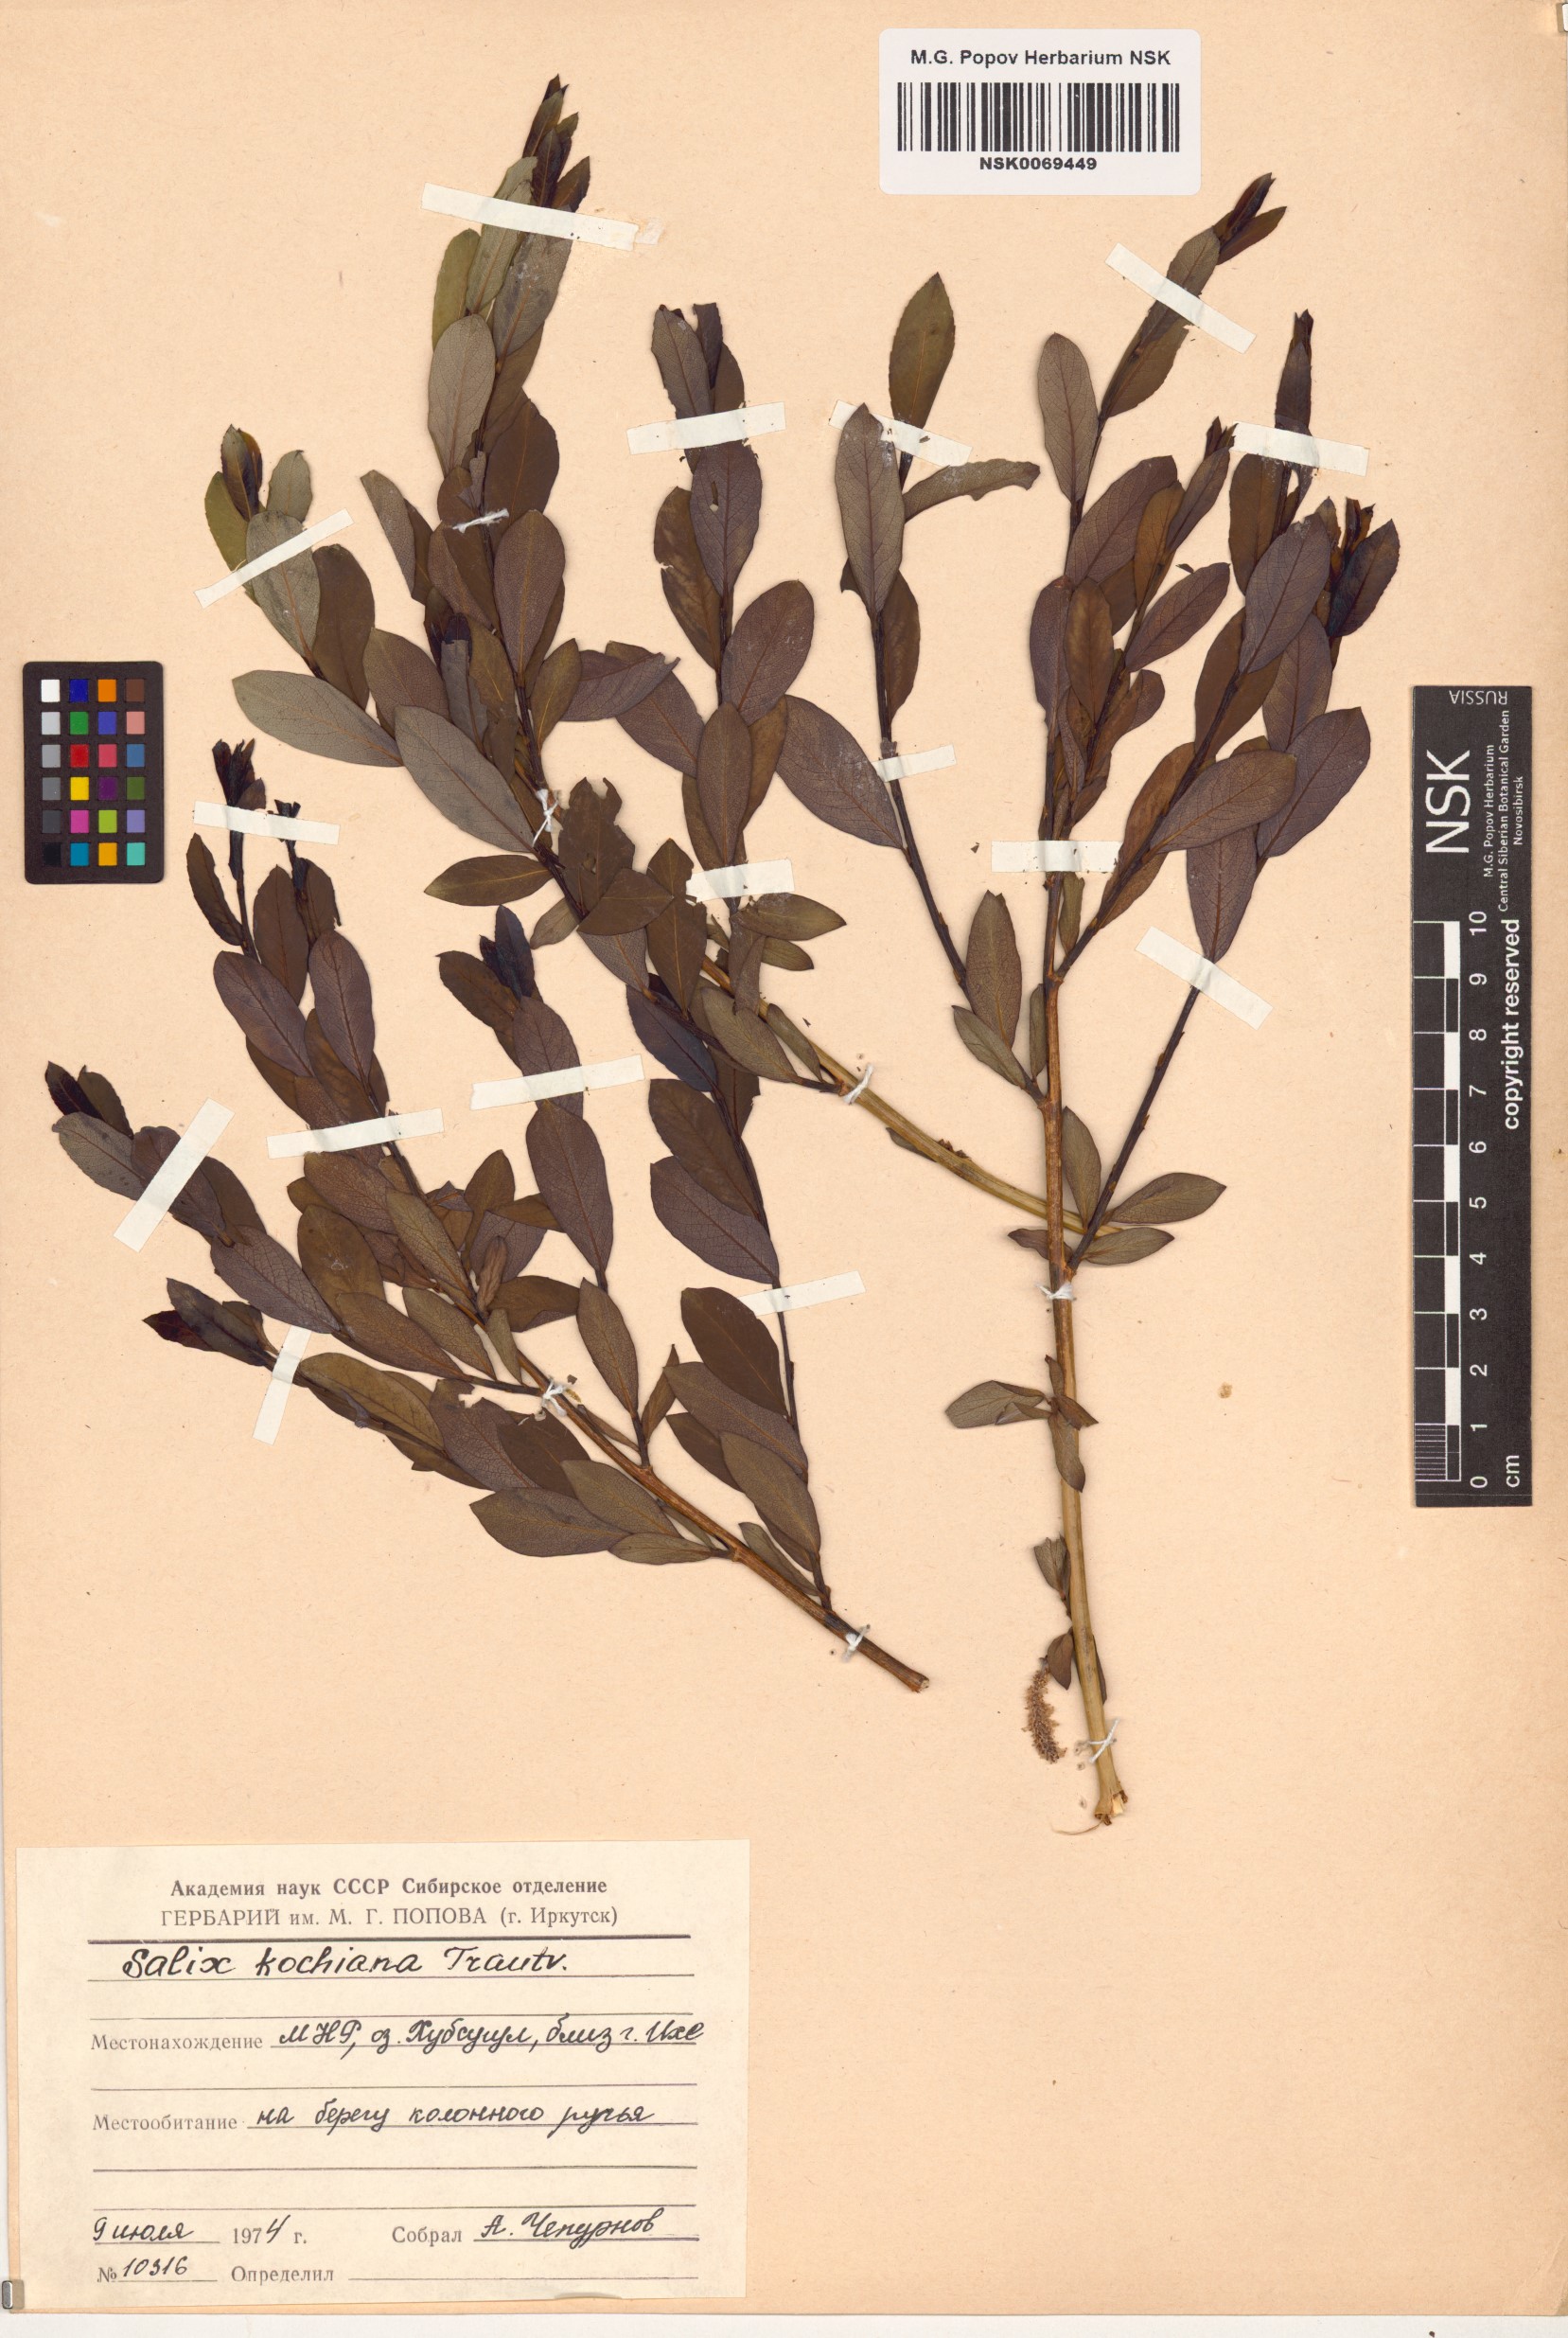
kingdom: Plantae
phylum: Tracheophyta
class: Magnoliopsida
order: Malpighiales
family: Salicaceae
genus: Salix
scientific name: Salix kochiana
